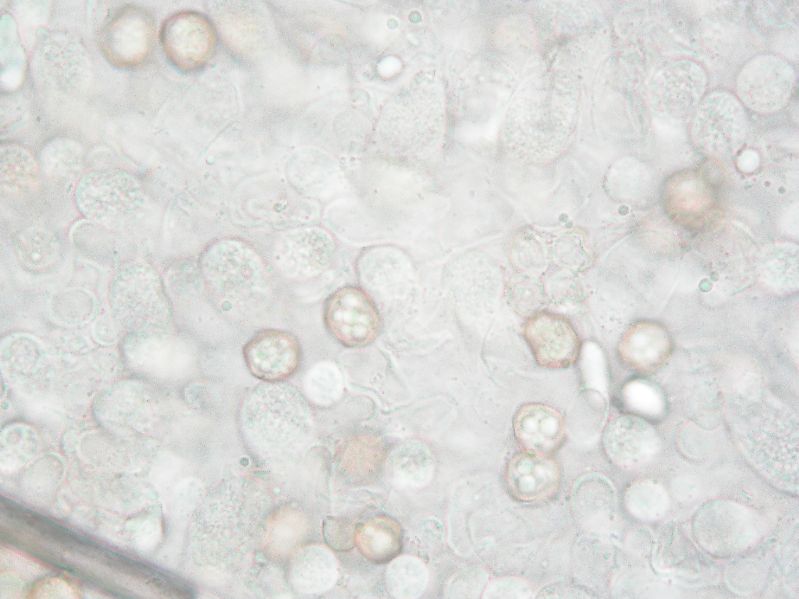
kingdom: Fungi
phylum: Basidiomycota
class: Agaricomycetes
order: Agaricales
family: Entolomataceae
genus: Entoloma
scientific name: Entoloma clypeatum
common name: flammet rødblad
